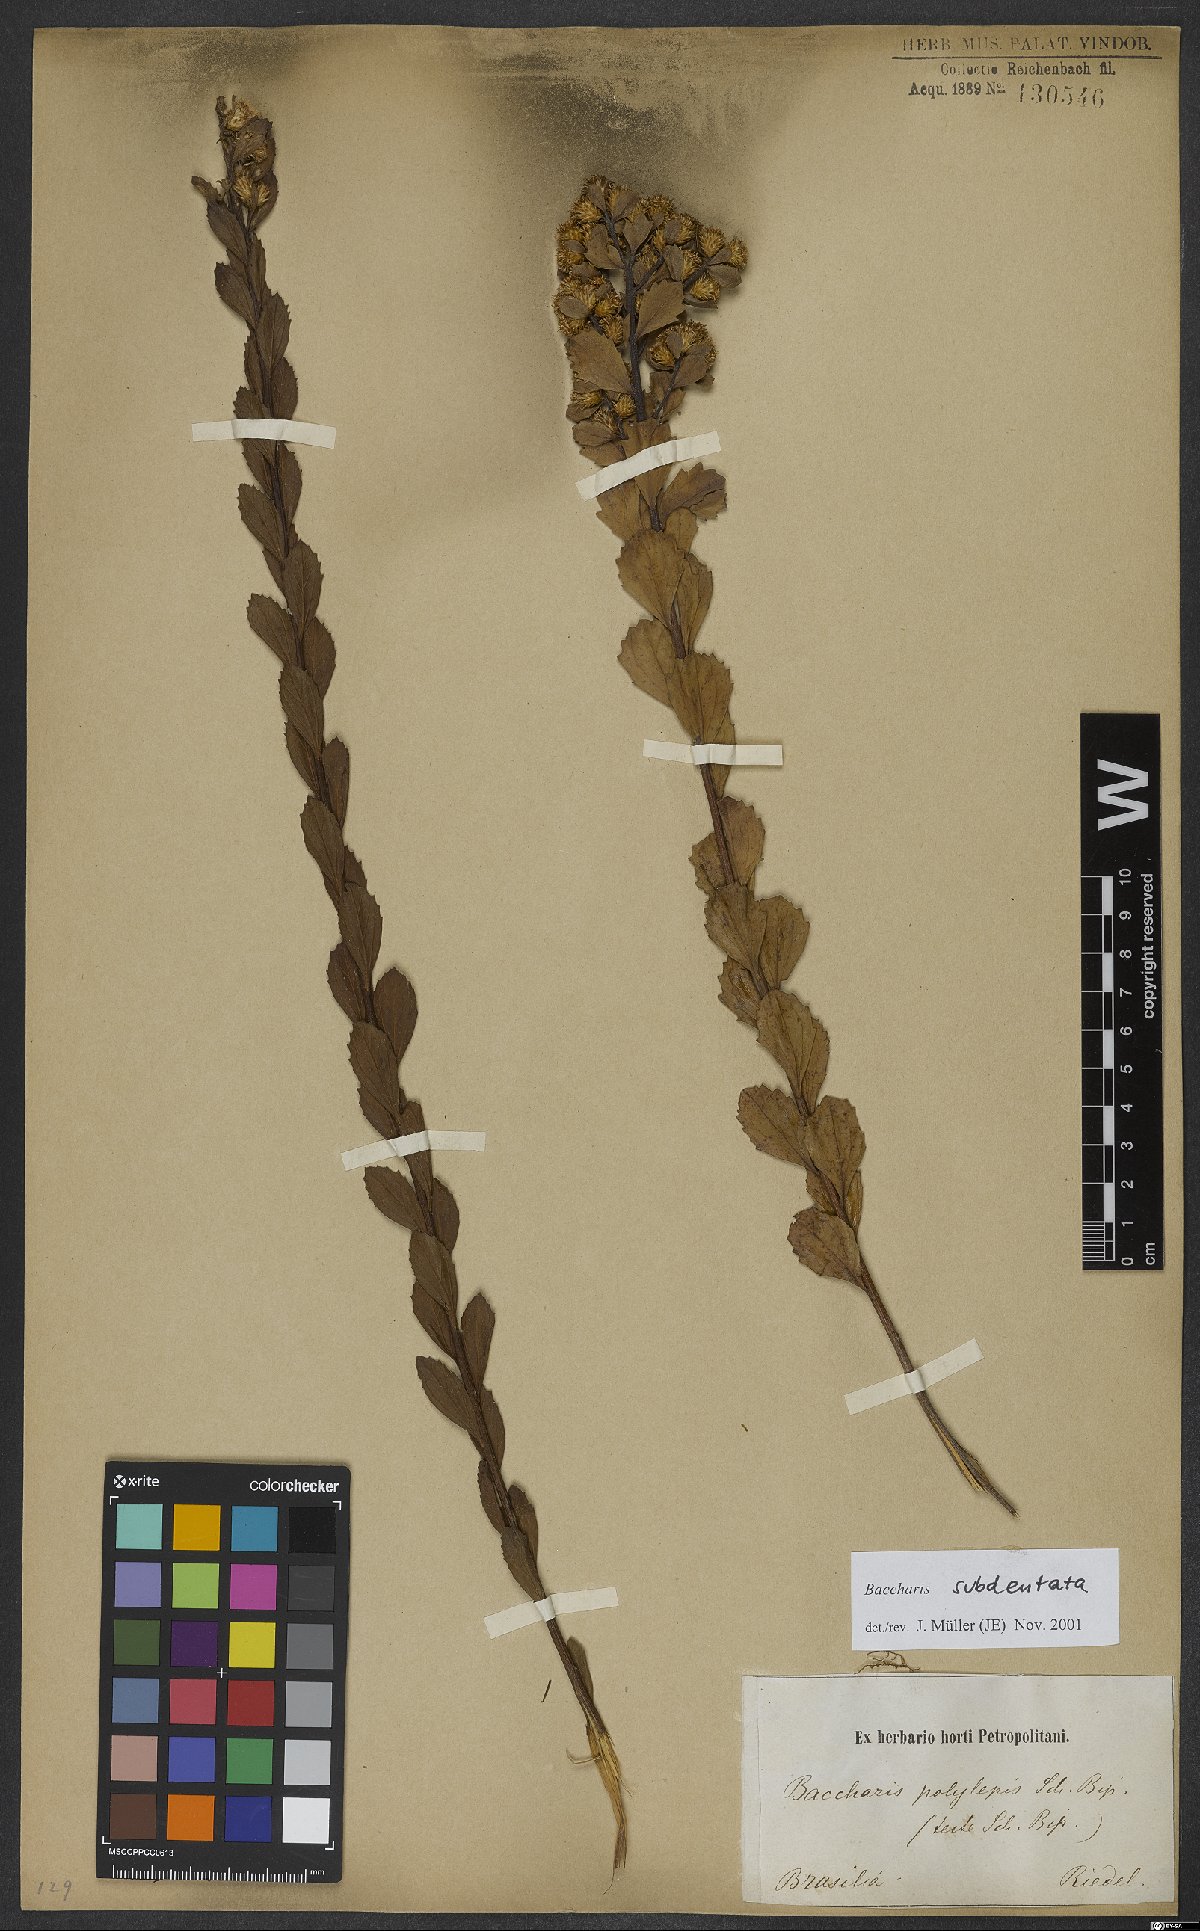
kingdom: Plantae
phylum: Tracheophyta
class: Magnoliopsida
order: Asterales
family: Asteraceae
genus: Baccharis
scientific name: Baccharis subdentata
